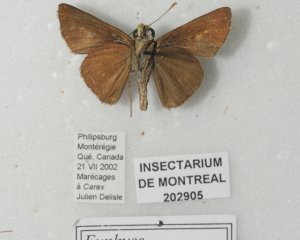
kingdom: Animalia
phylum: Arthropoda
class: Insecta
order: Lepidoptera
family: Hesperiidae
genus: Euphyes
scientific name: Euphyes vestris
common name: Dun Skipper
